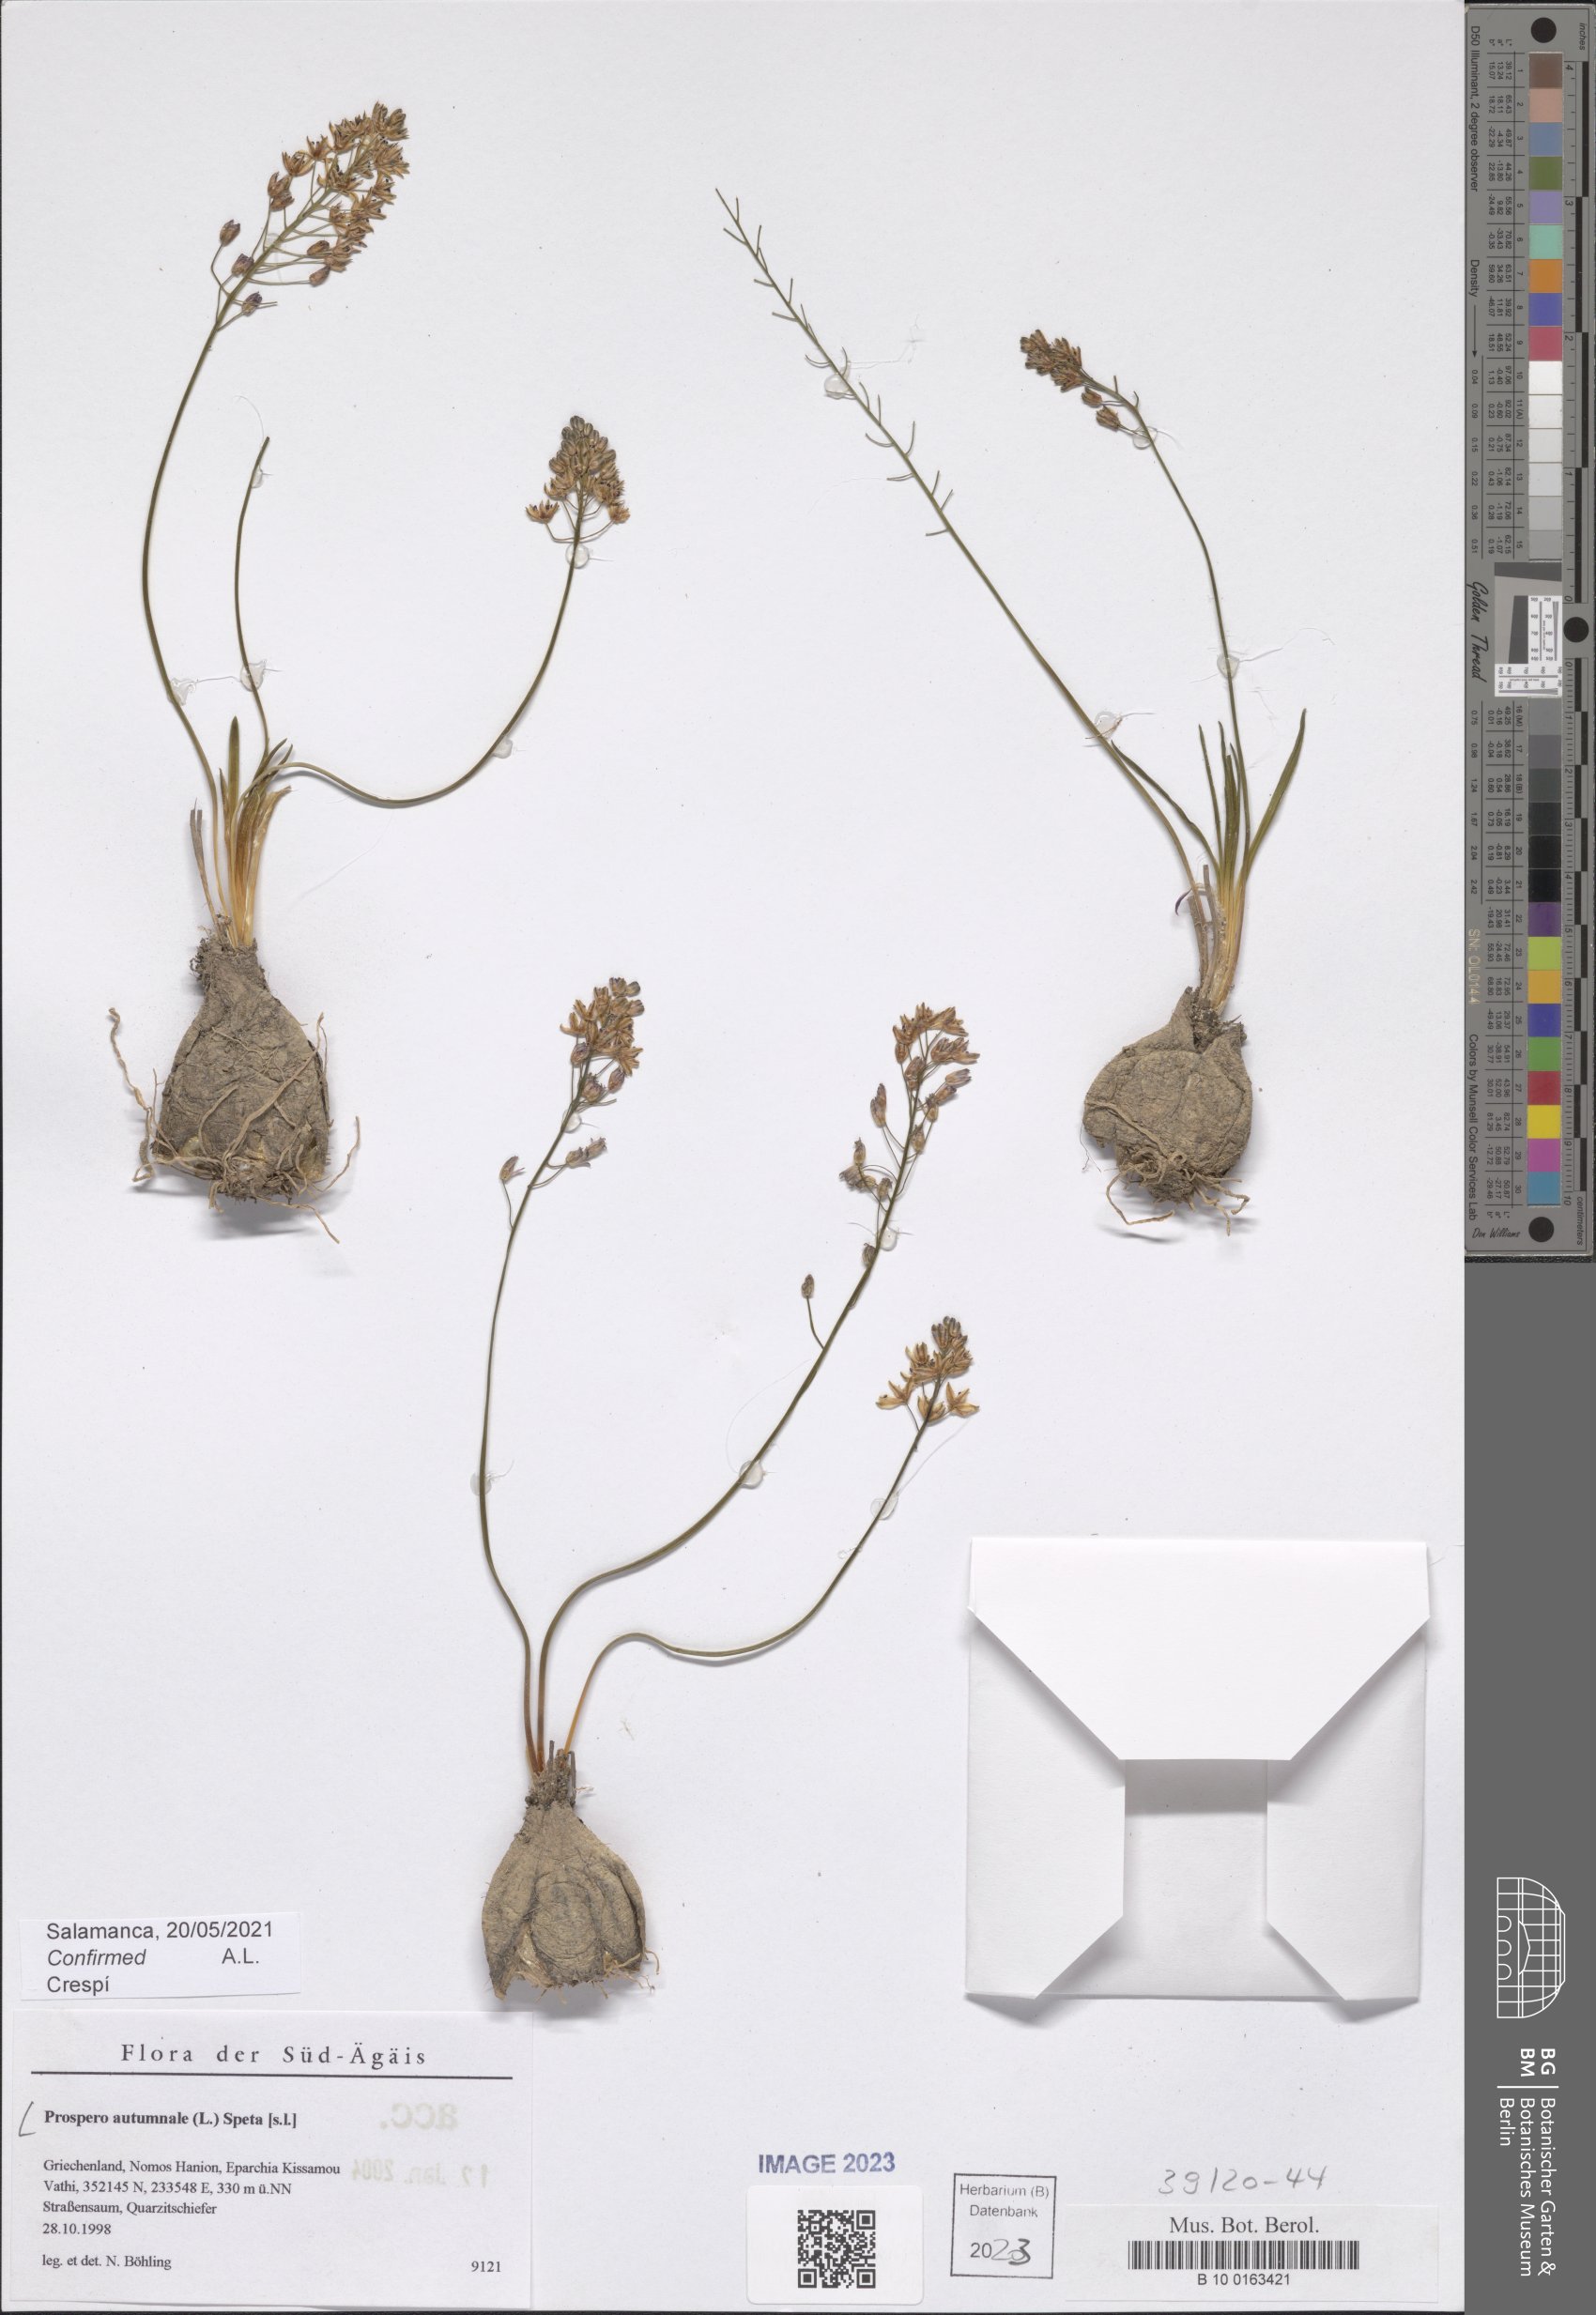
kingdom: Plantae
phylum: Tracheophyta
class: Liliopsida
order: Asparagales
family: Asparagaceae
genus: Prospero
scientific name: Prospero autumnale
